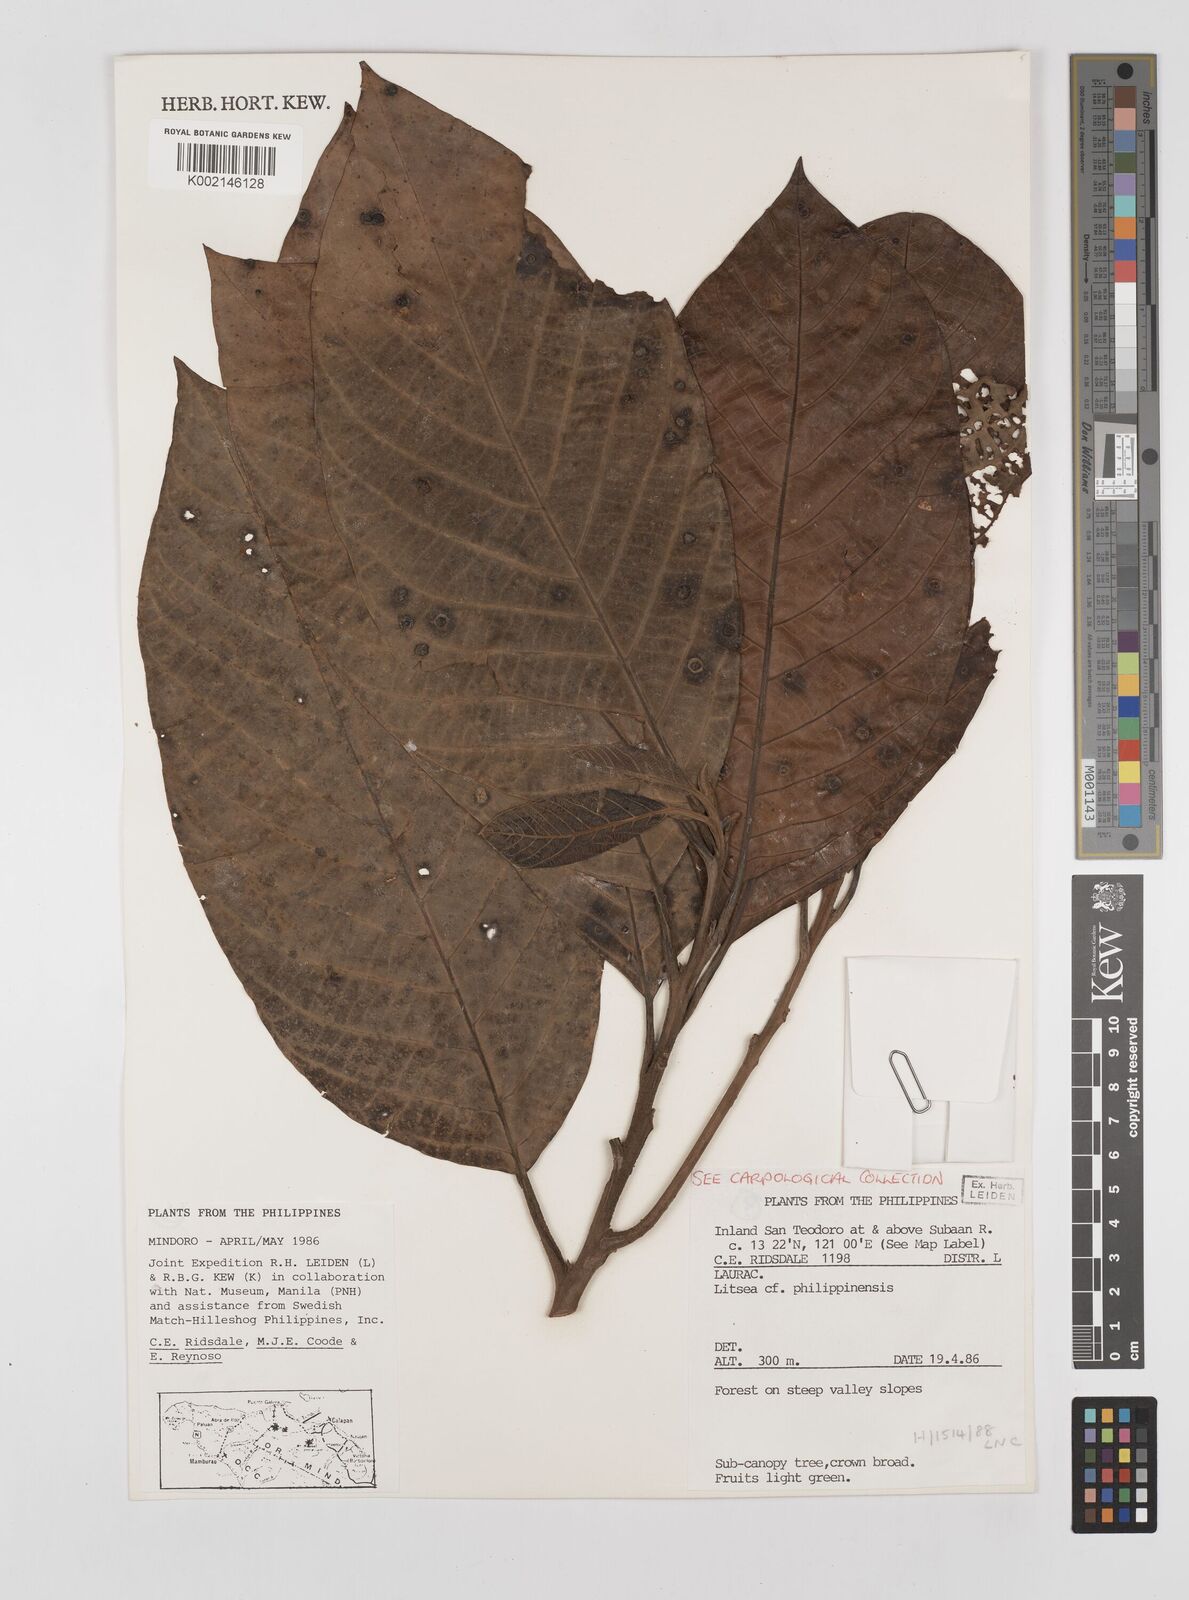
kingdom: Plantae
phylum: Tracheophyta
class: Magnoliopsida
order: Laurales
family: Lauraceae
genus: Litsea
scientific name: Litsea philippinensis
